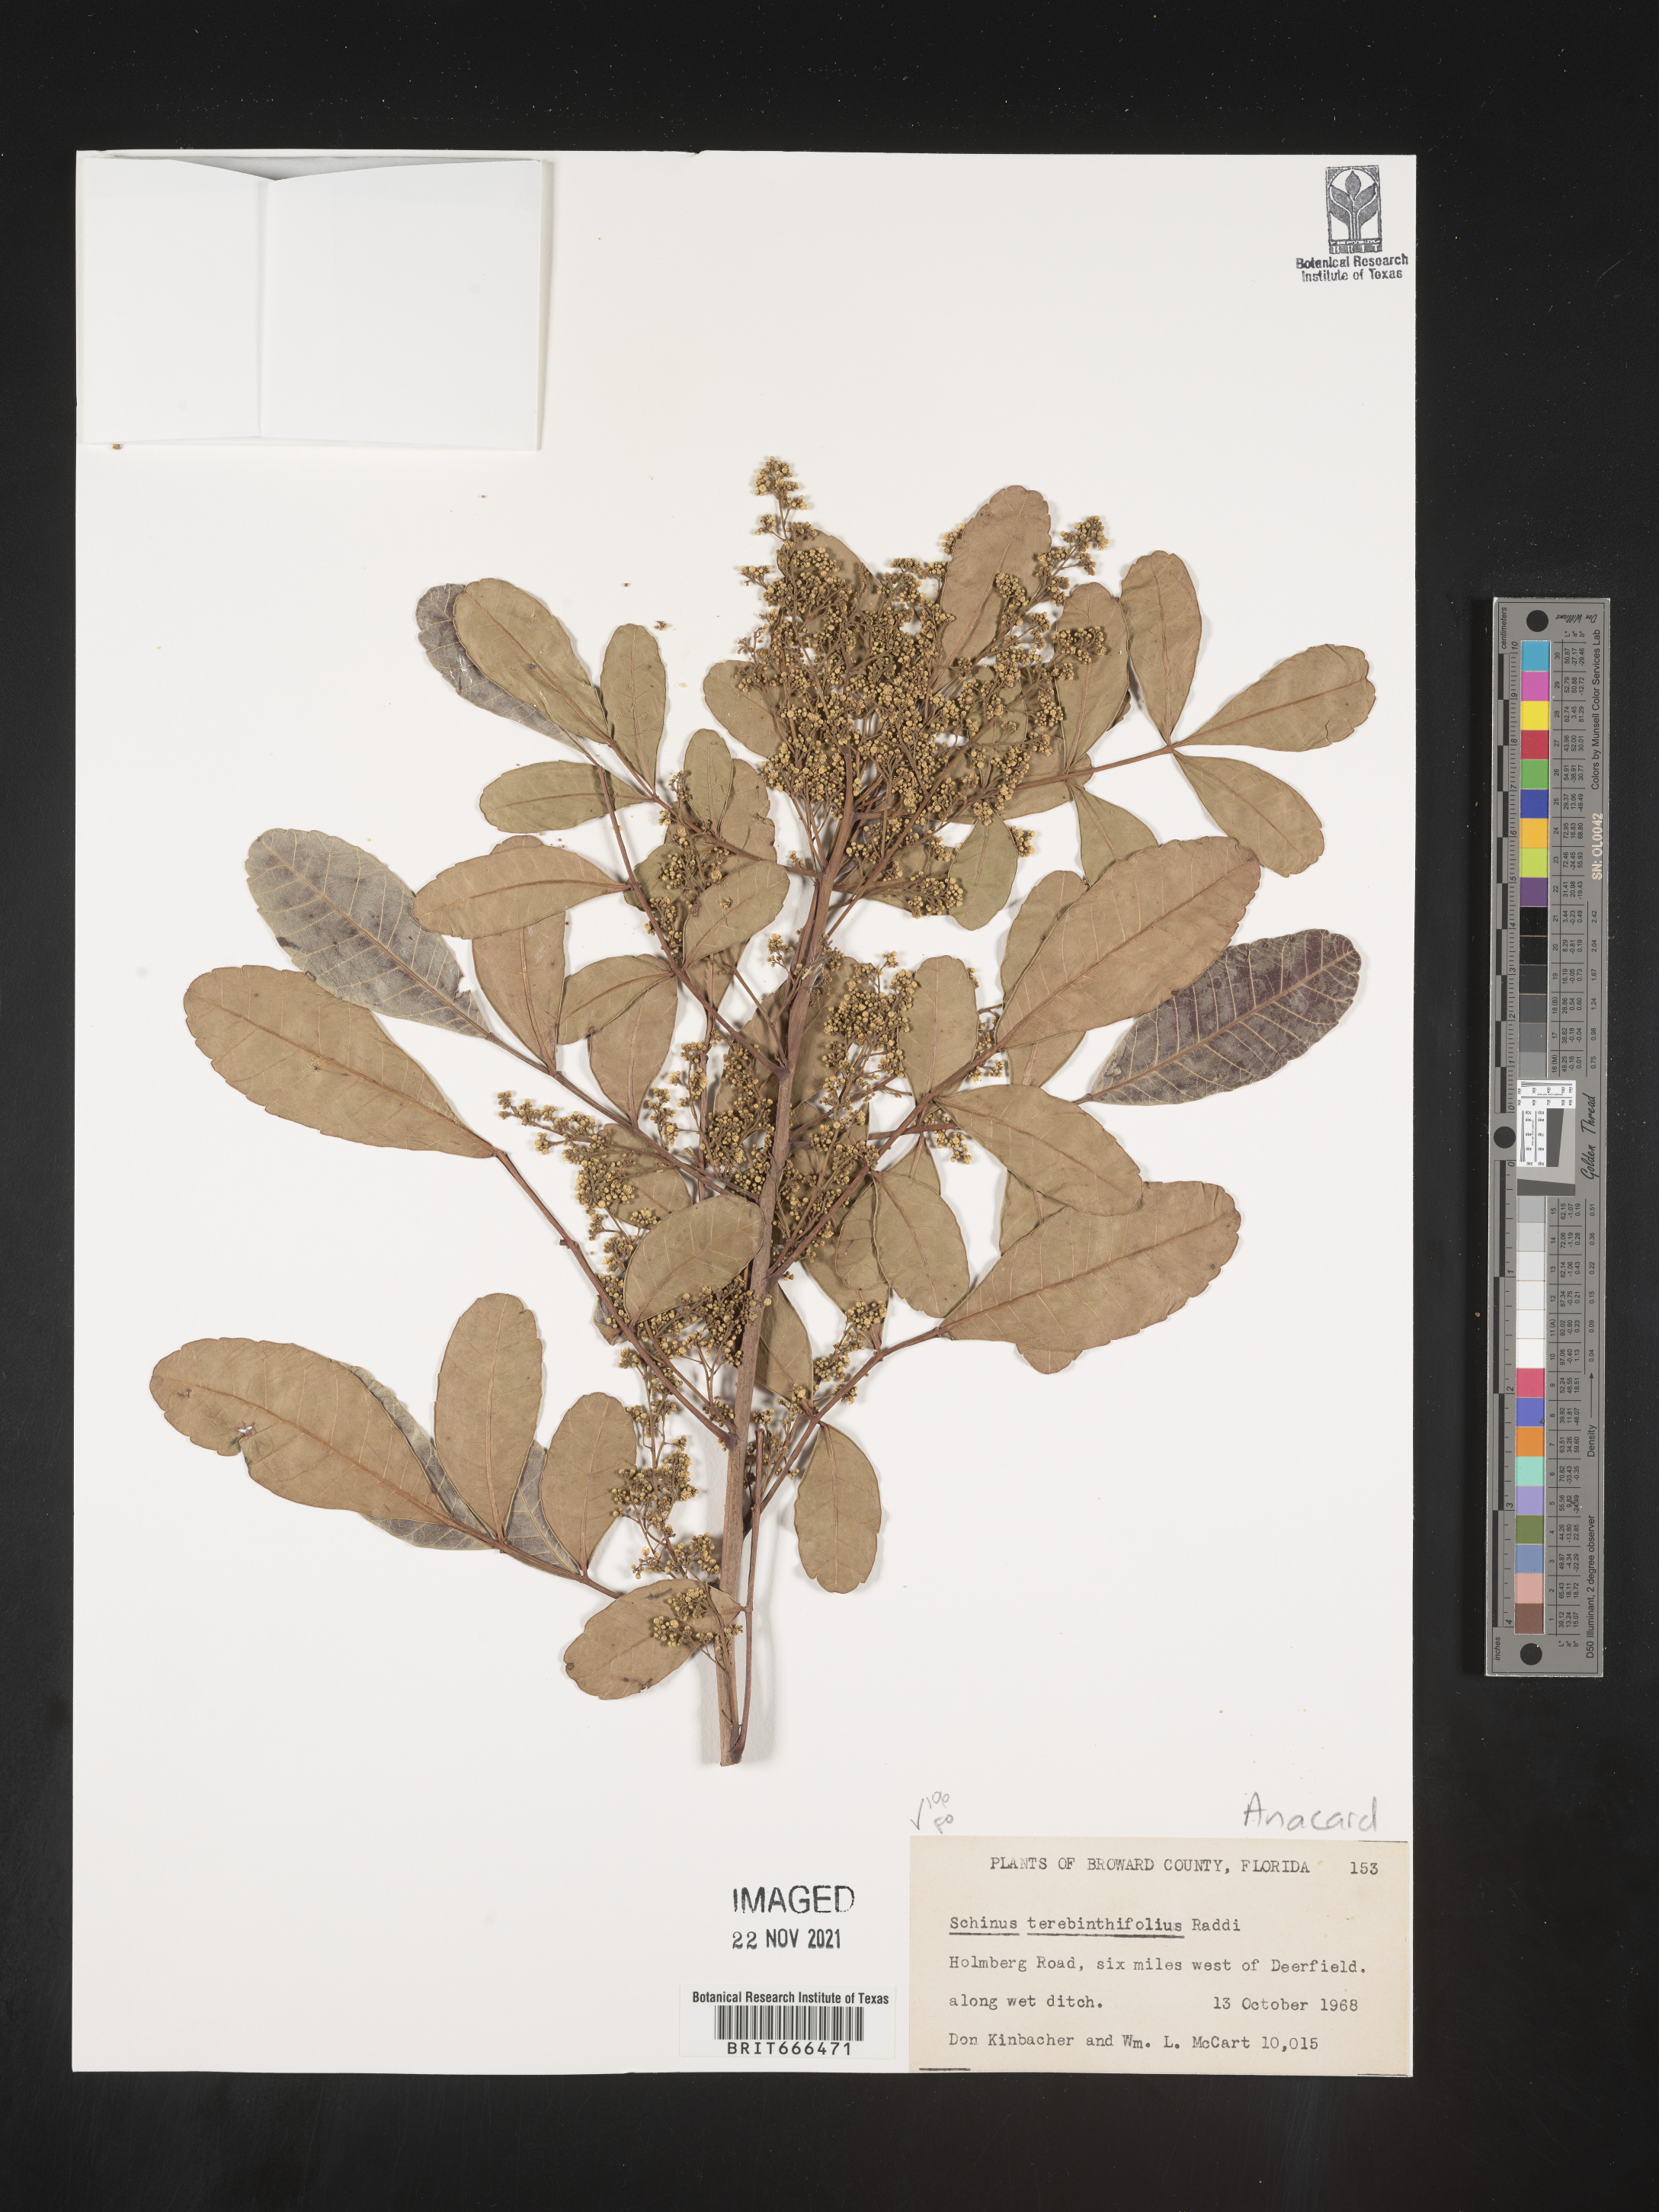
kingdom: Plantae
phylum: Tracheophyta
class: Magnoliopsida
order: Sapindales
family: Anacardiaceae
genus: Schinus
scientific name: Schinus
